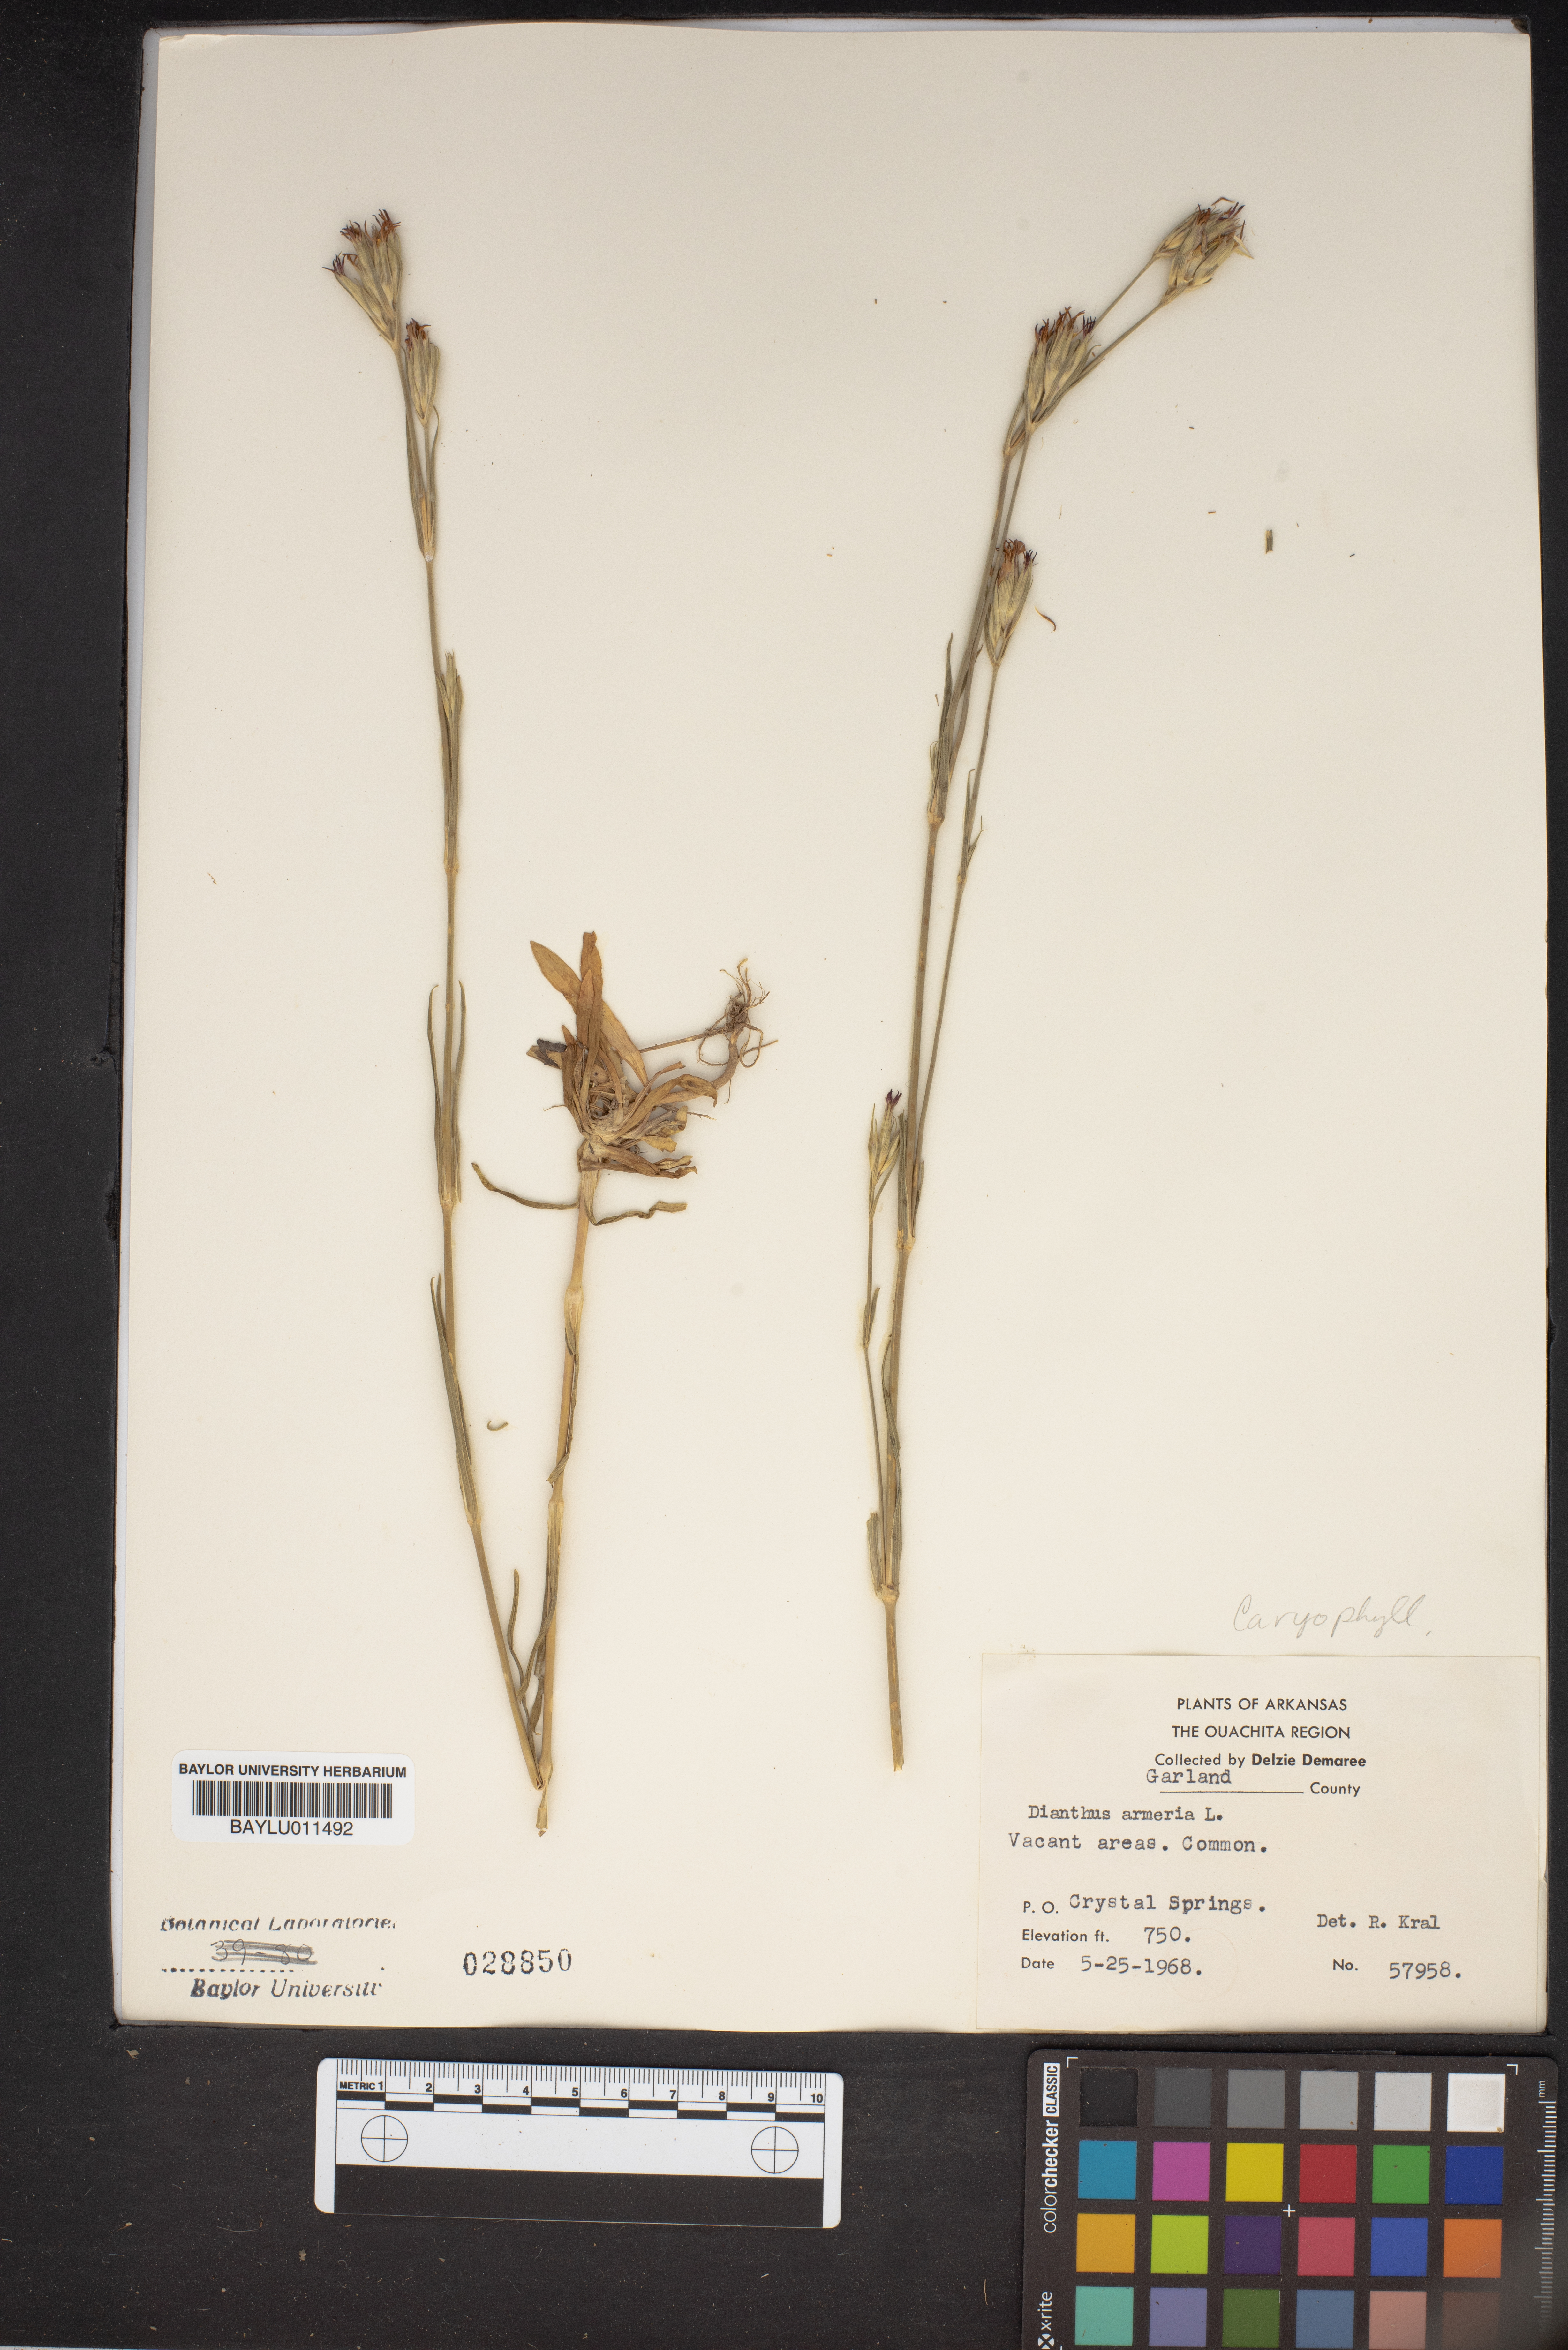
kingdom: Plantae
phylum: Tracheophyta
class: Magnoliopsida
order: Caryophyllales
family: Caryophyllaceae
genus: Dianthus
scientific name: Dianthus armeria
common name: Deptford pink
